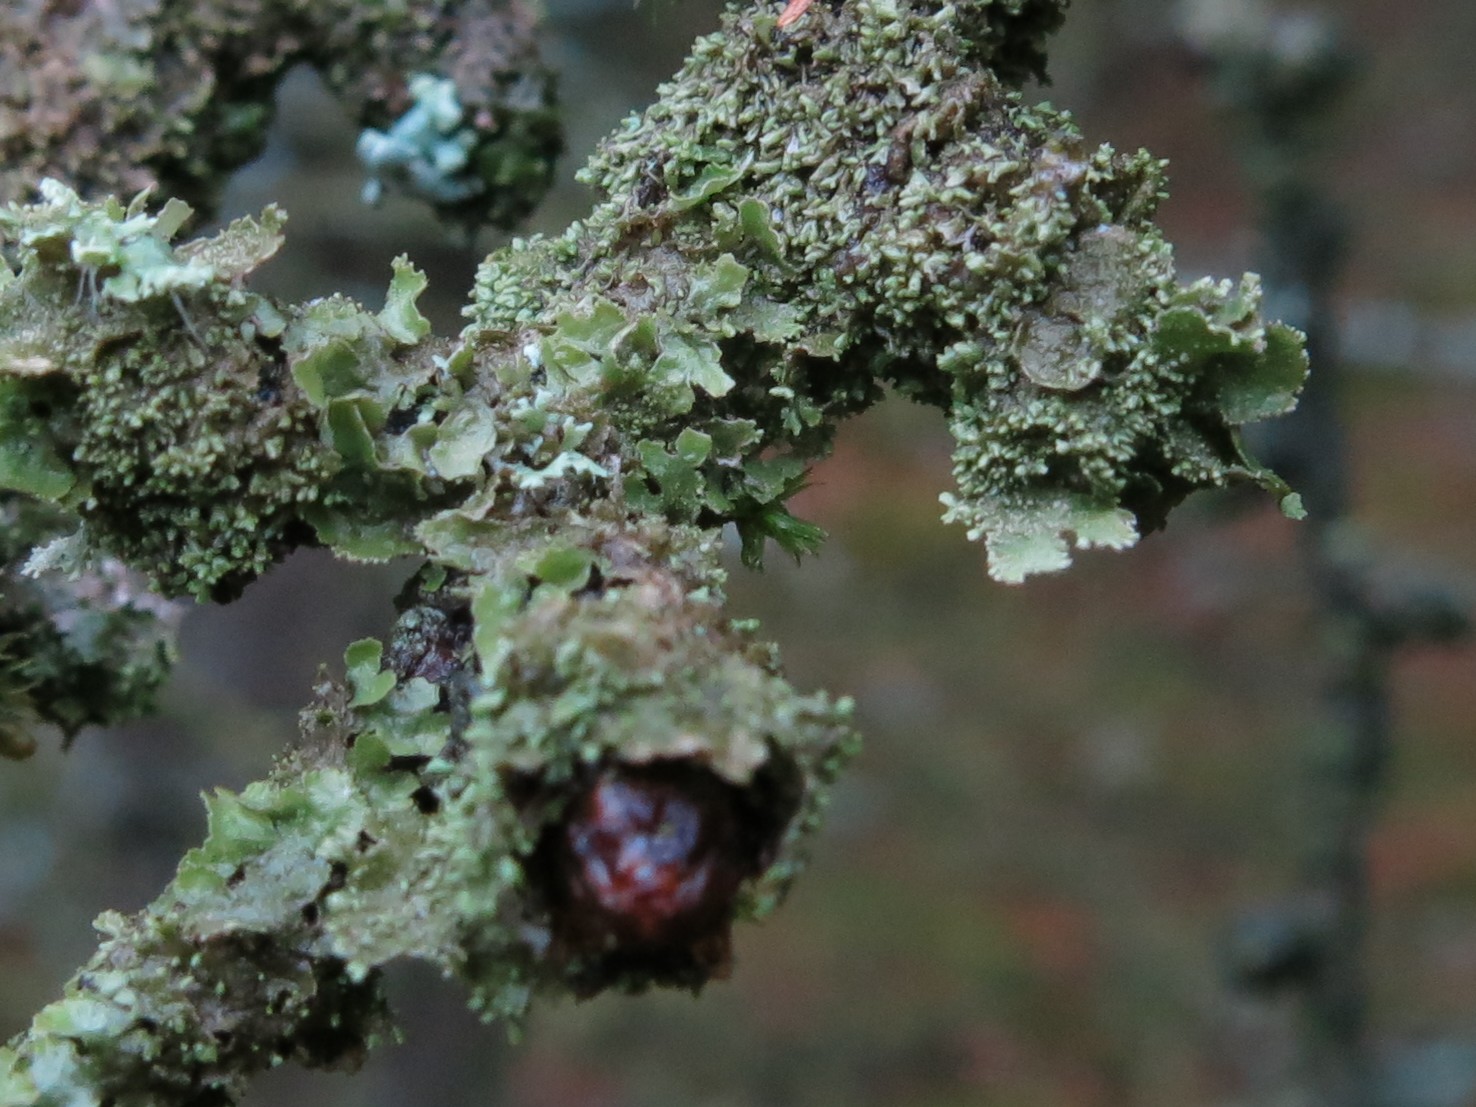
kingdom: Fungi
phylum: Ascomycota
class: Lecanoromycetes
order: Lecanorales
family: Parmeliaceae
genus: Melanohalea
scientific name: Melanohalea exasperatula
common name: kølle-skållav
